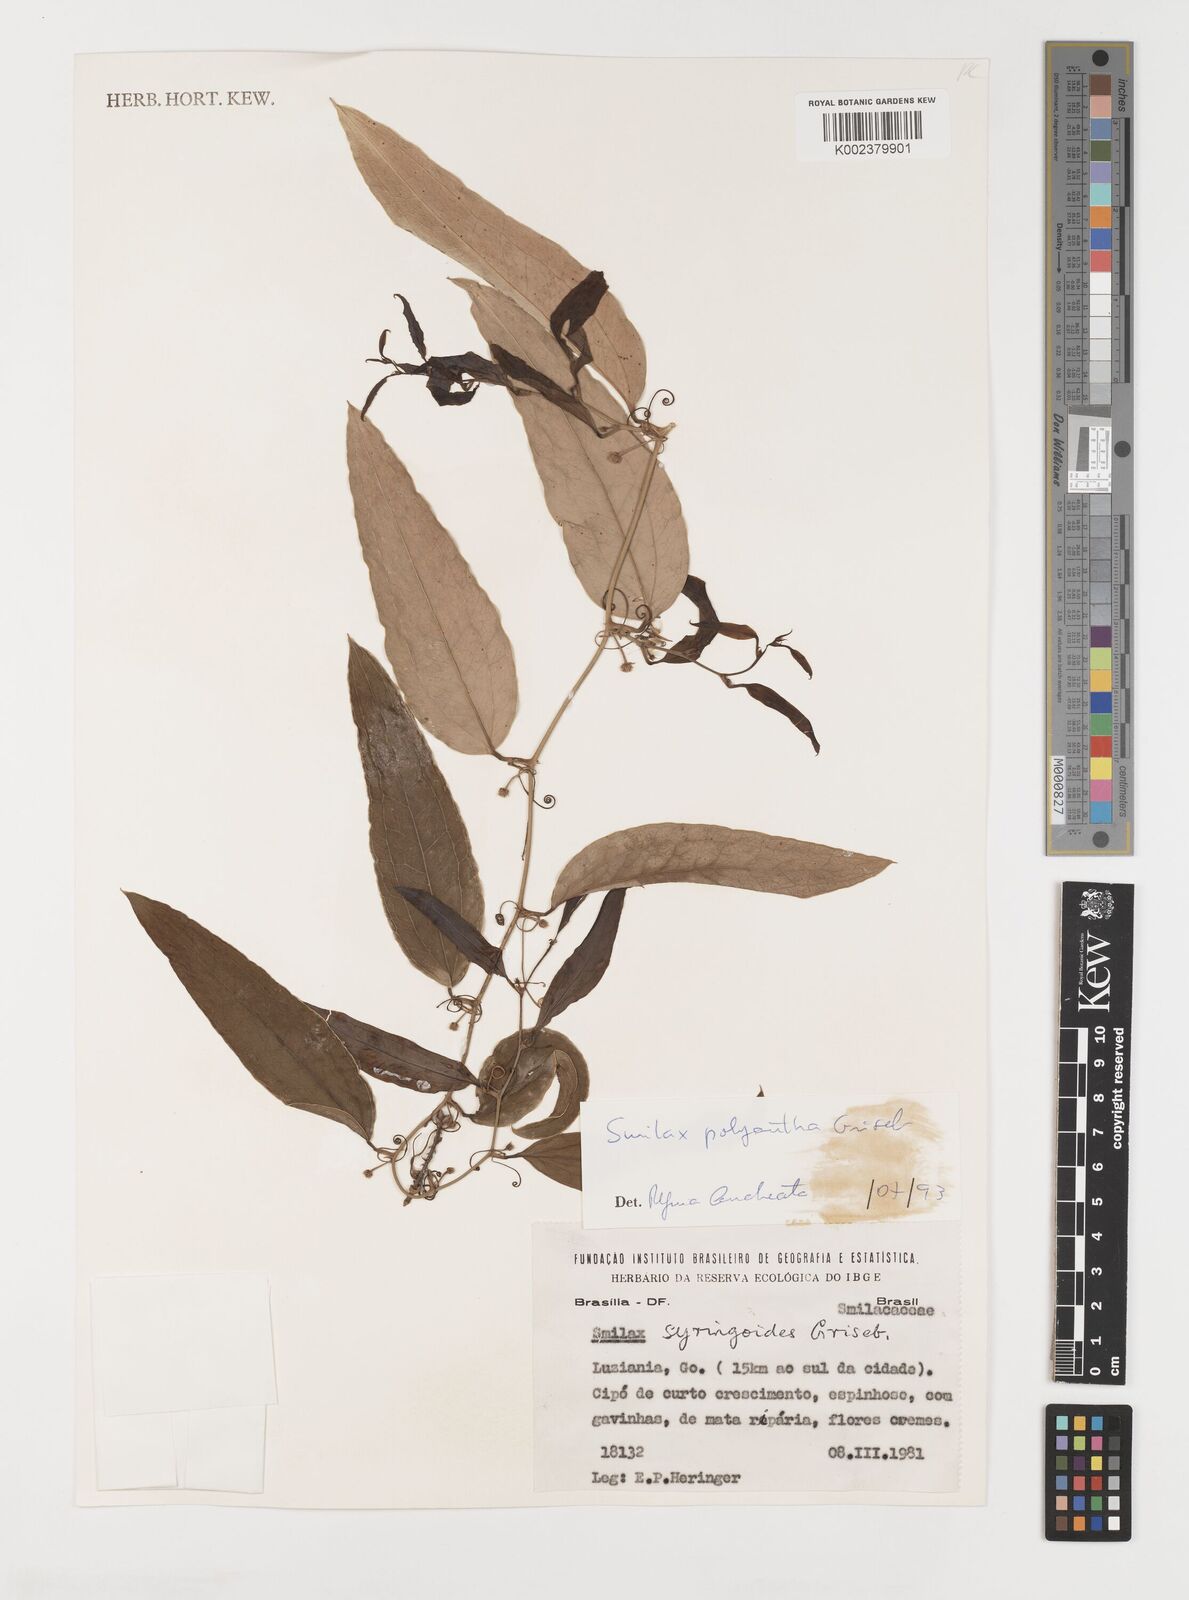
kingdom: Plantae
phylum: Tracheophyta
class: Liliopsida
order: Liliales
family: Smilacaceae
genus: Smilax
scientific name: Smilax polyantha
